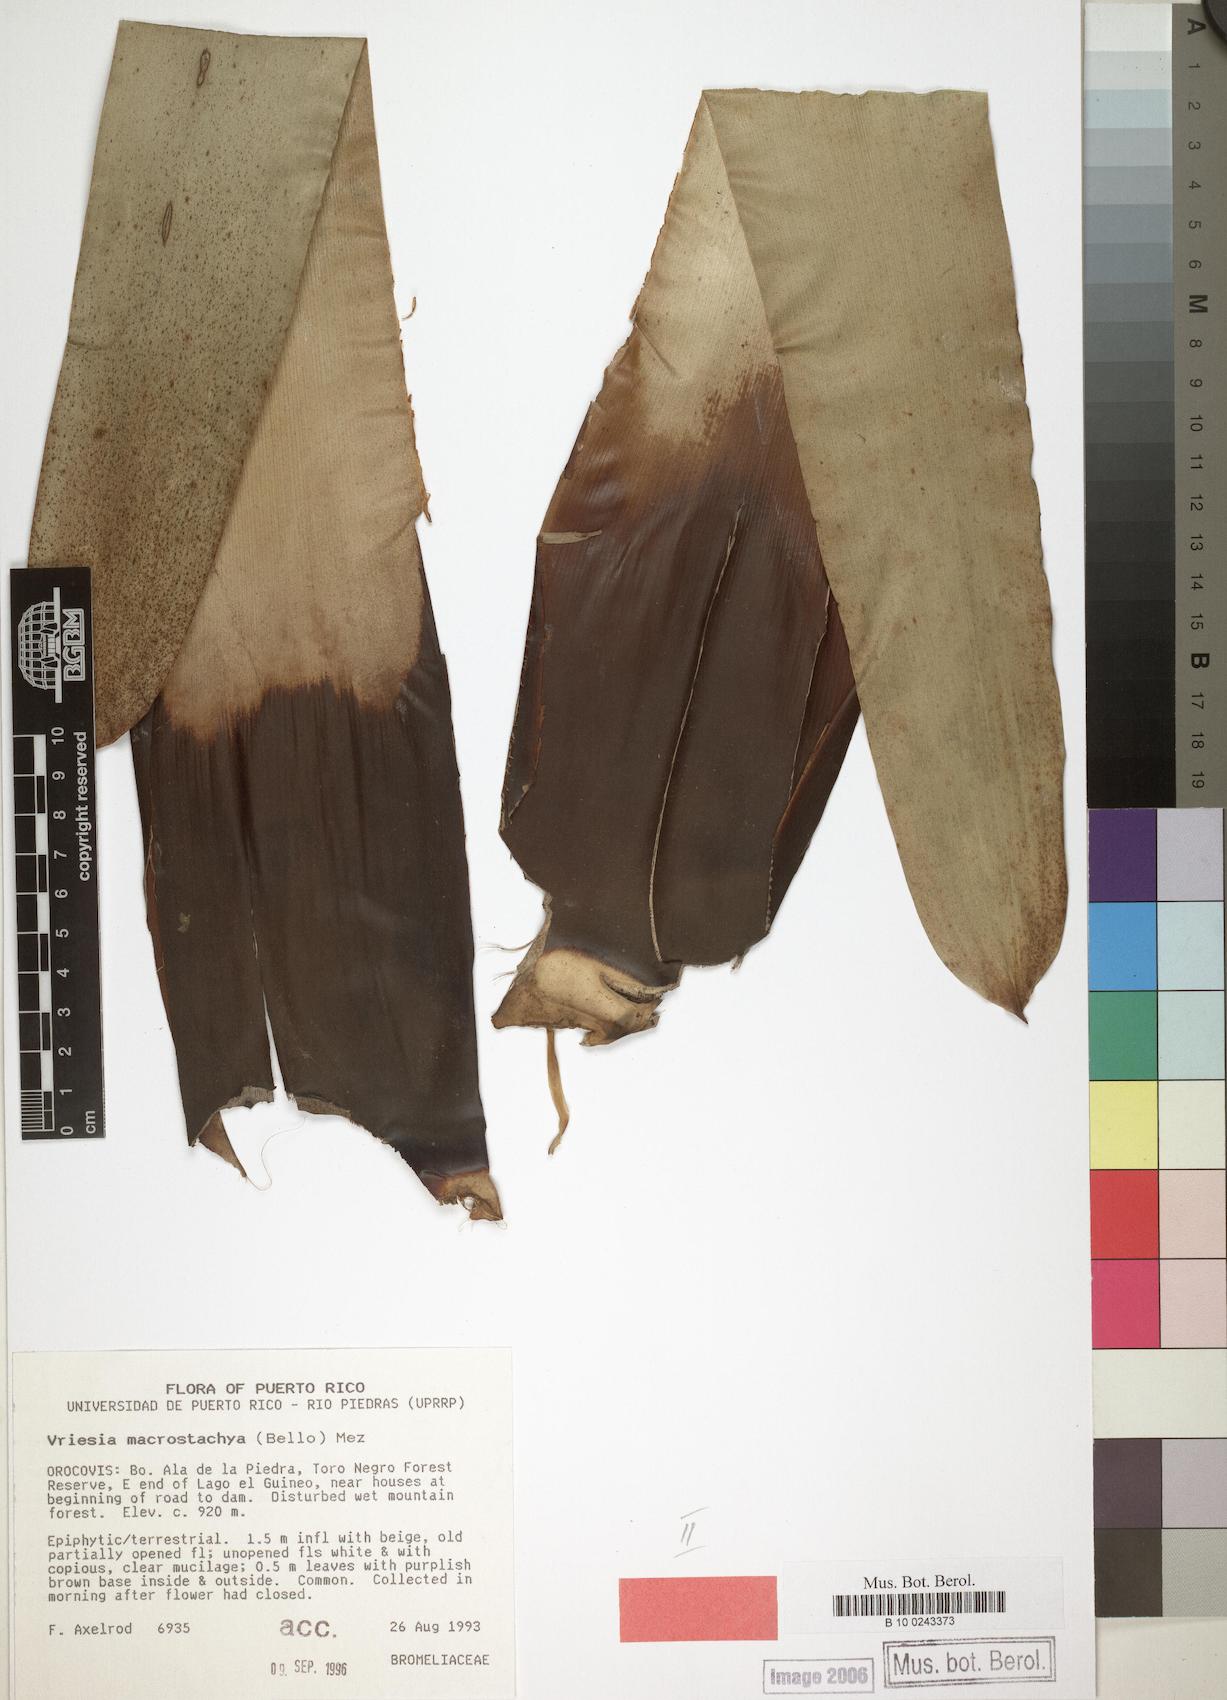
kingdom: Plantae
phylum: Tracheophyta
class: Liliopsida
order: Poales
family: Bromeliaceae
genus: Vriesea
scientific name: Vriesea macrostachya
